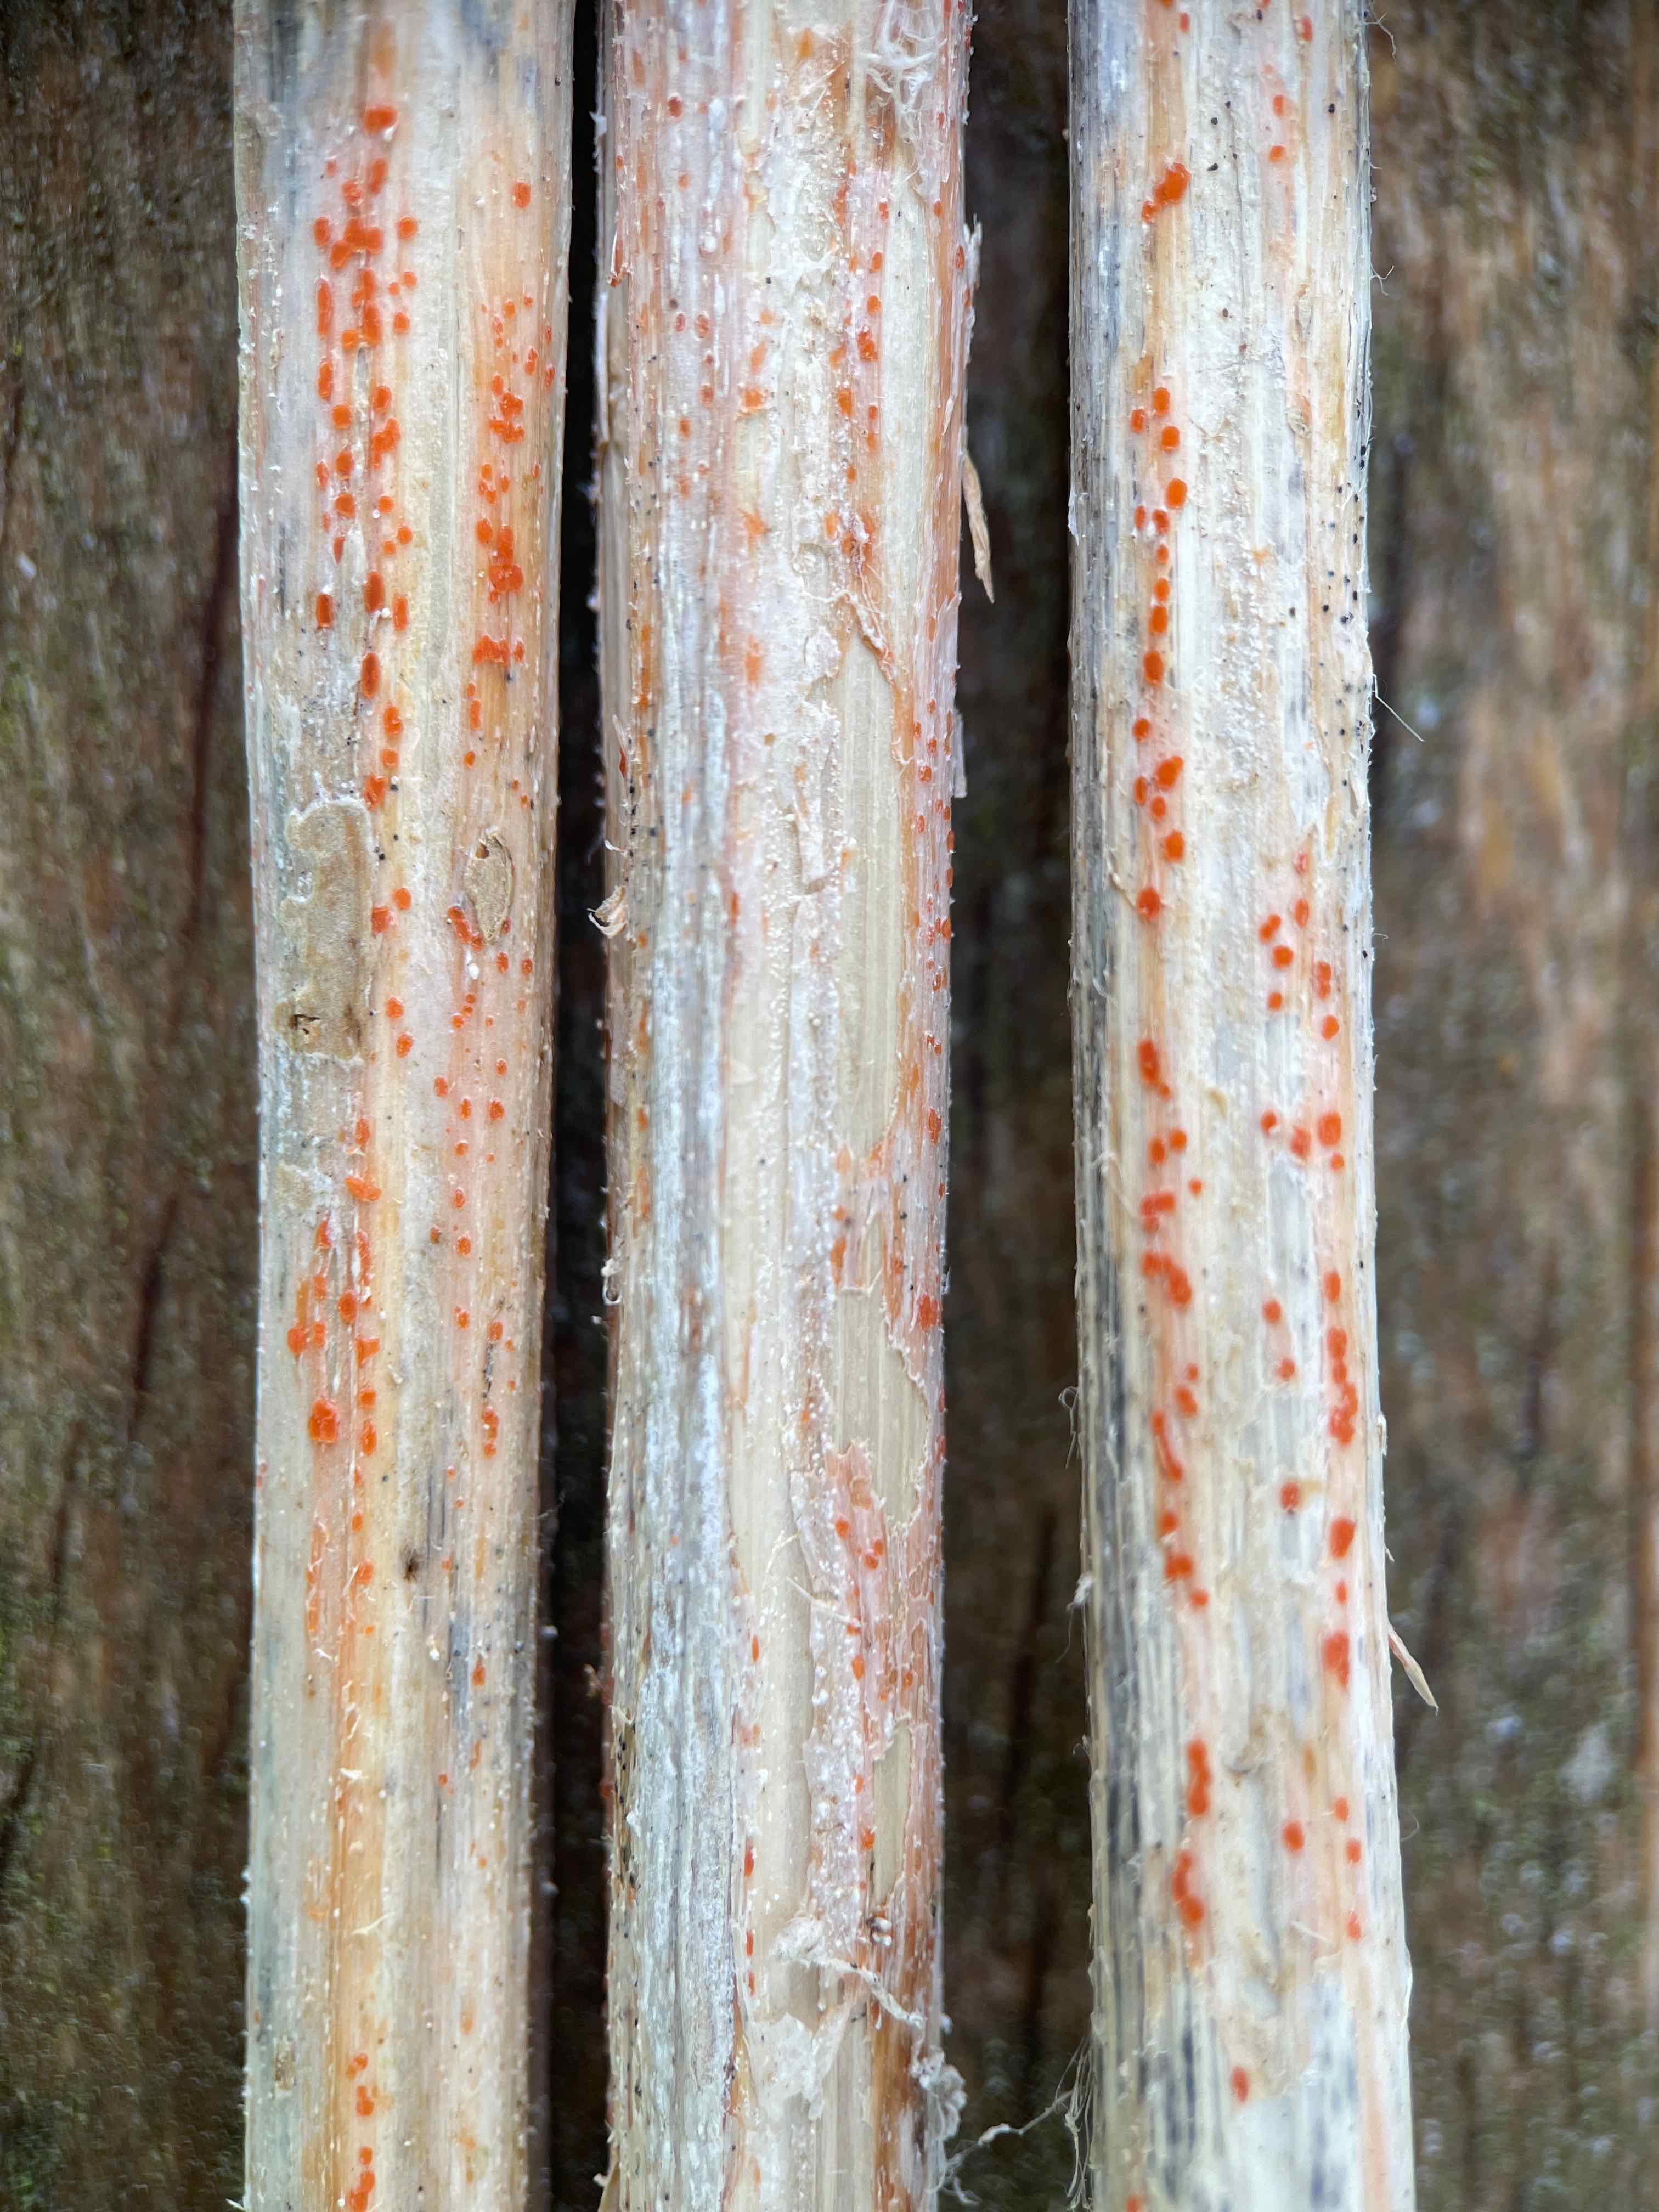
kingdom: Fungi
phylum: Ascomycota
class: Leotiomycetes
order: Helotiales
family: Calloriaceae
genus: Calloria
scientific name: Calloria urticae
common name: nælde-orangeskive
